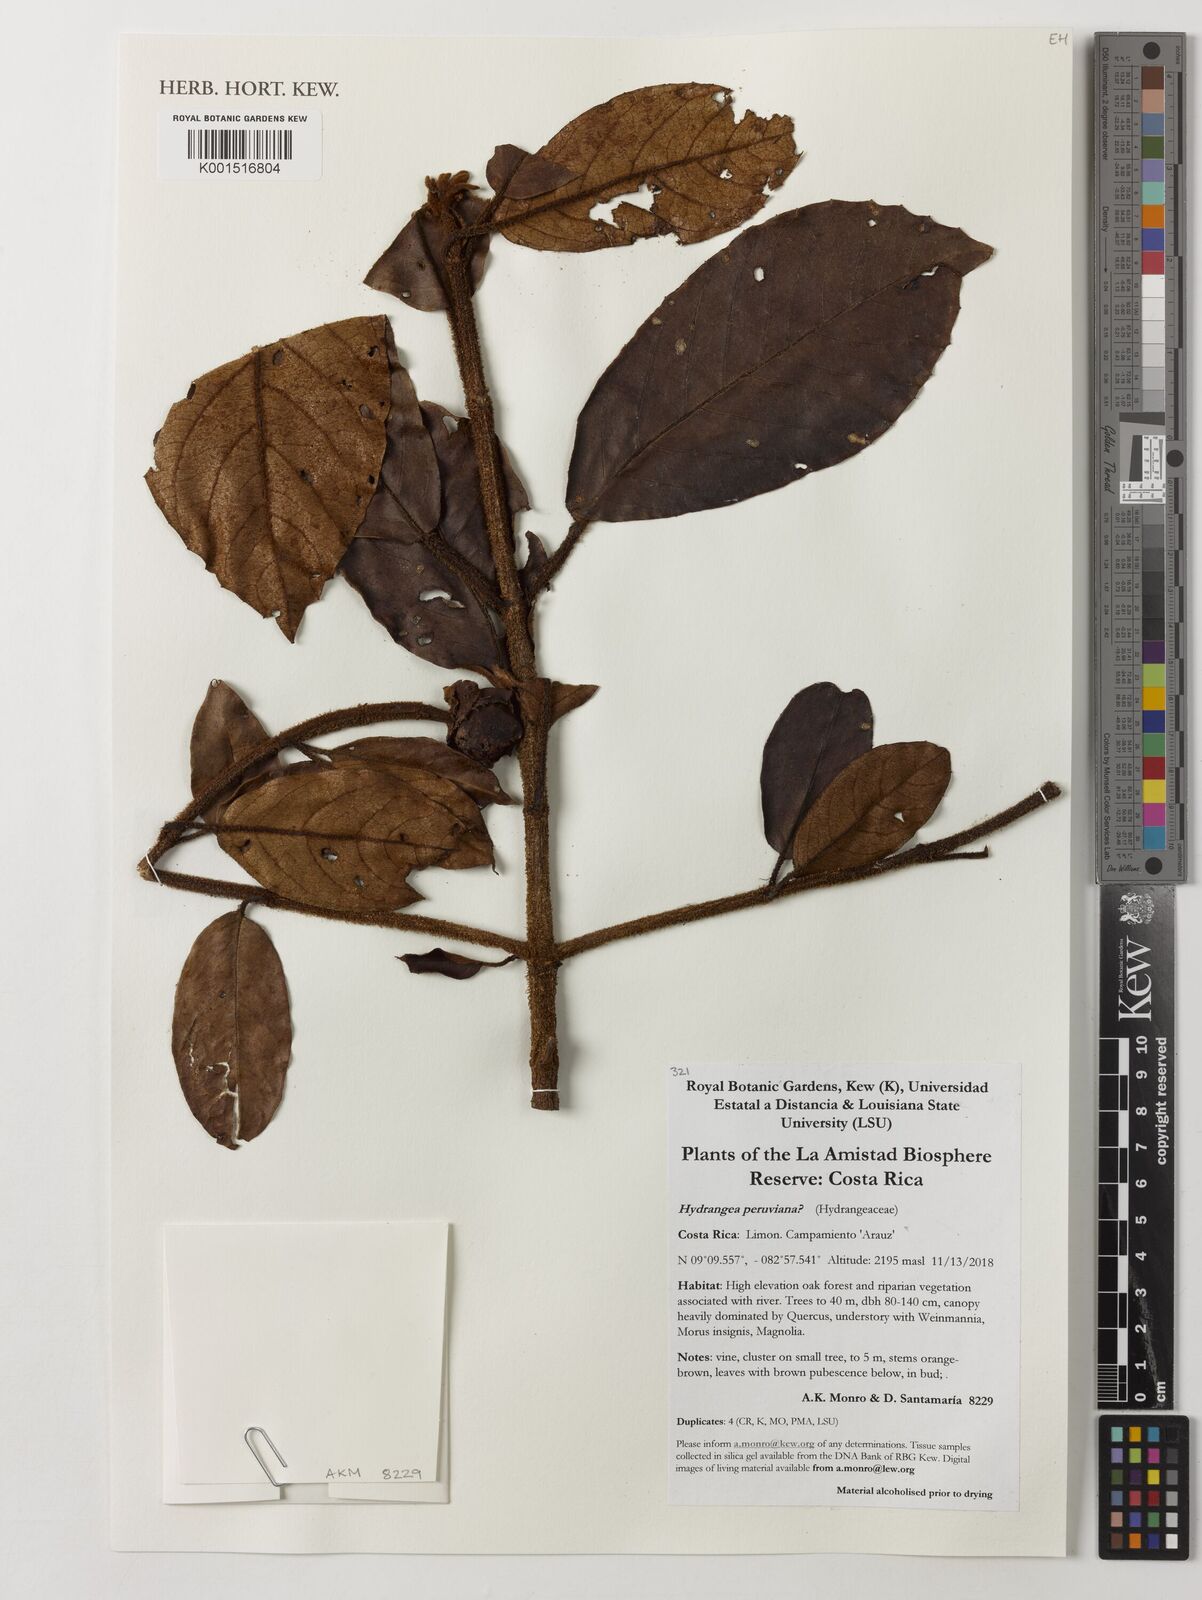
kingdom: Plantae
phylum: Tracheophyta
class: Magnoliopsida
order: Cornales
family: Hydrangeaceae
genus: Hydrangea
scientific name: Hydrangea peruviana
